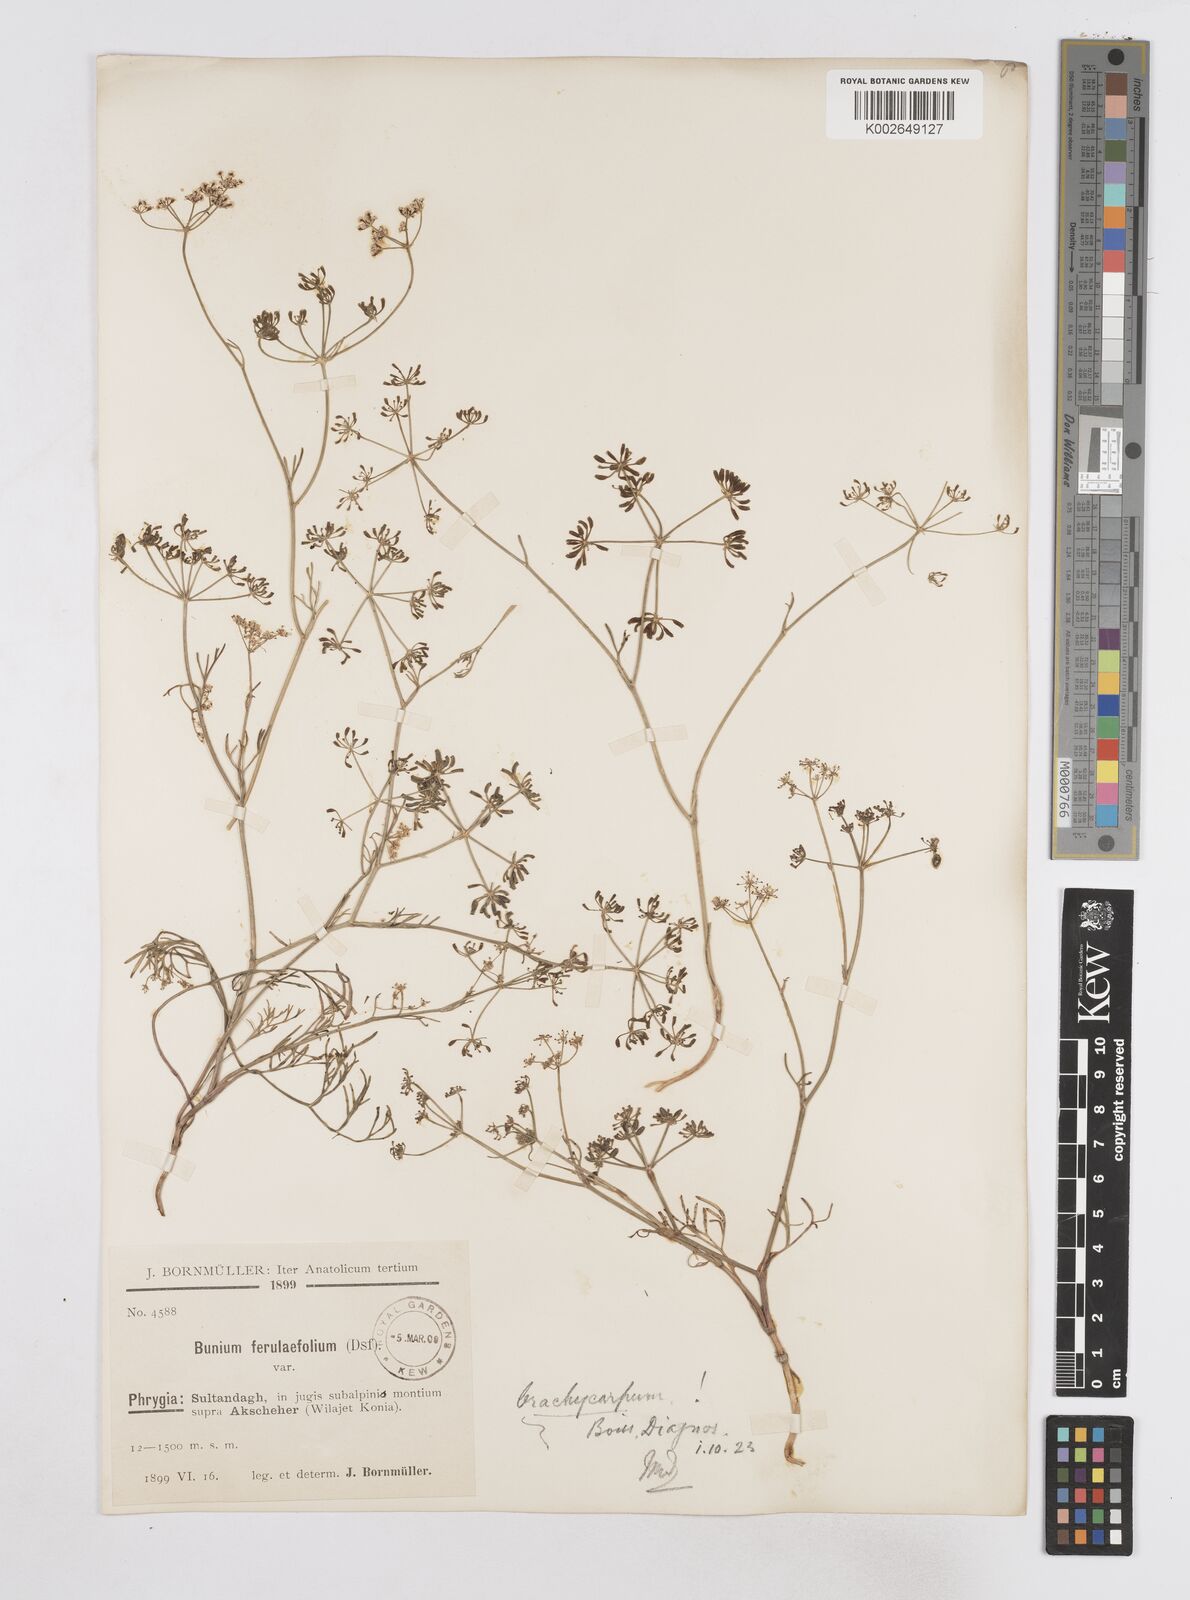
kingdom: Plantae
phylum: Tracheophyta
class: Magnoliopsida
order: Apiales
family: Apiaceae
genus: Bunium
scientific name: Bunium ferulaceum
